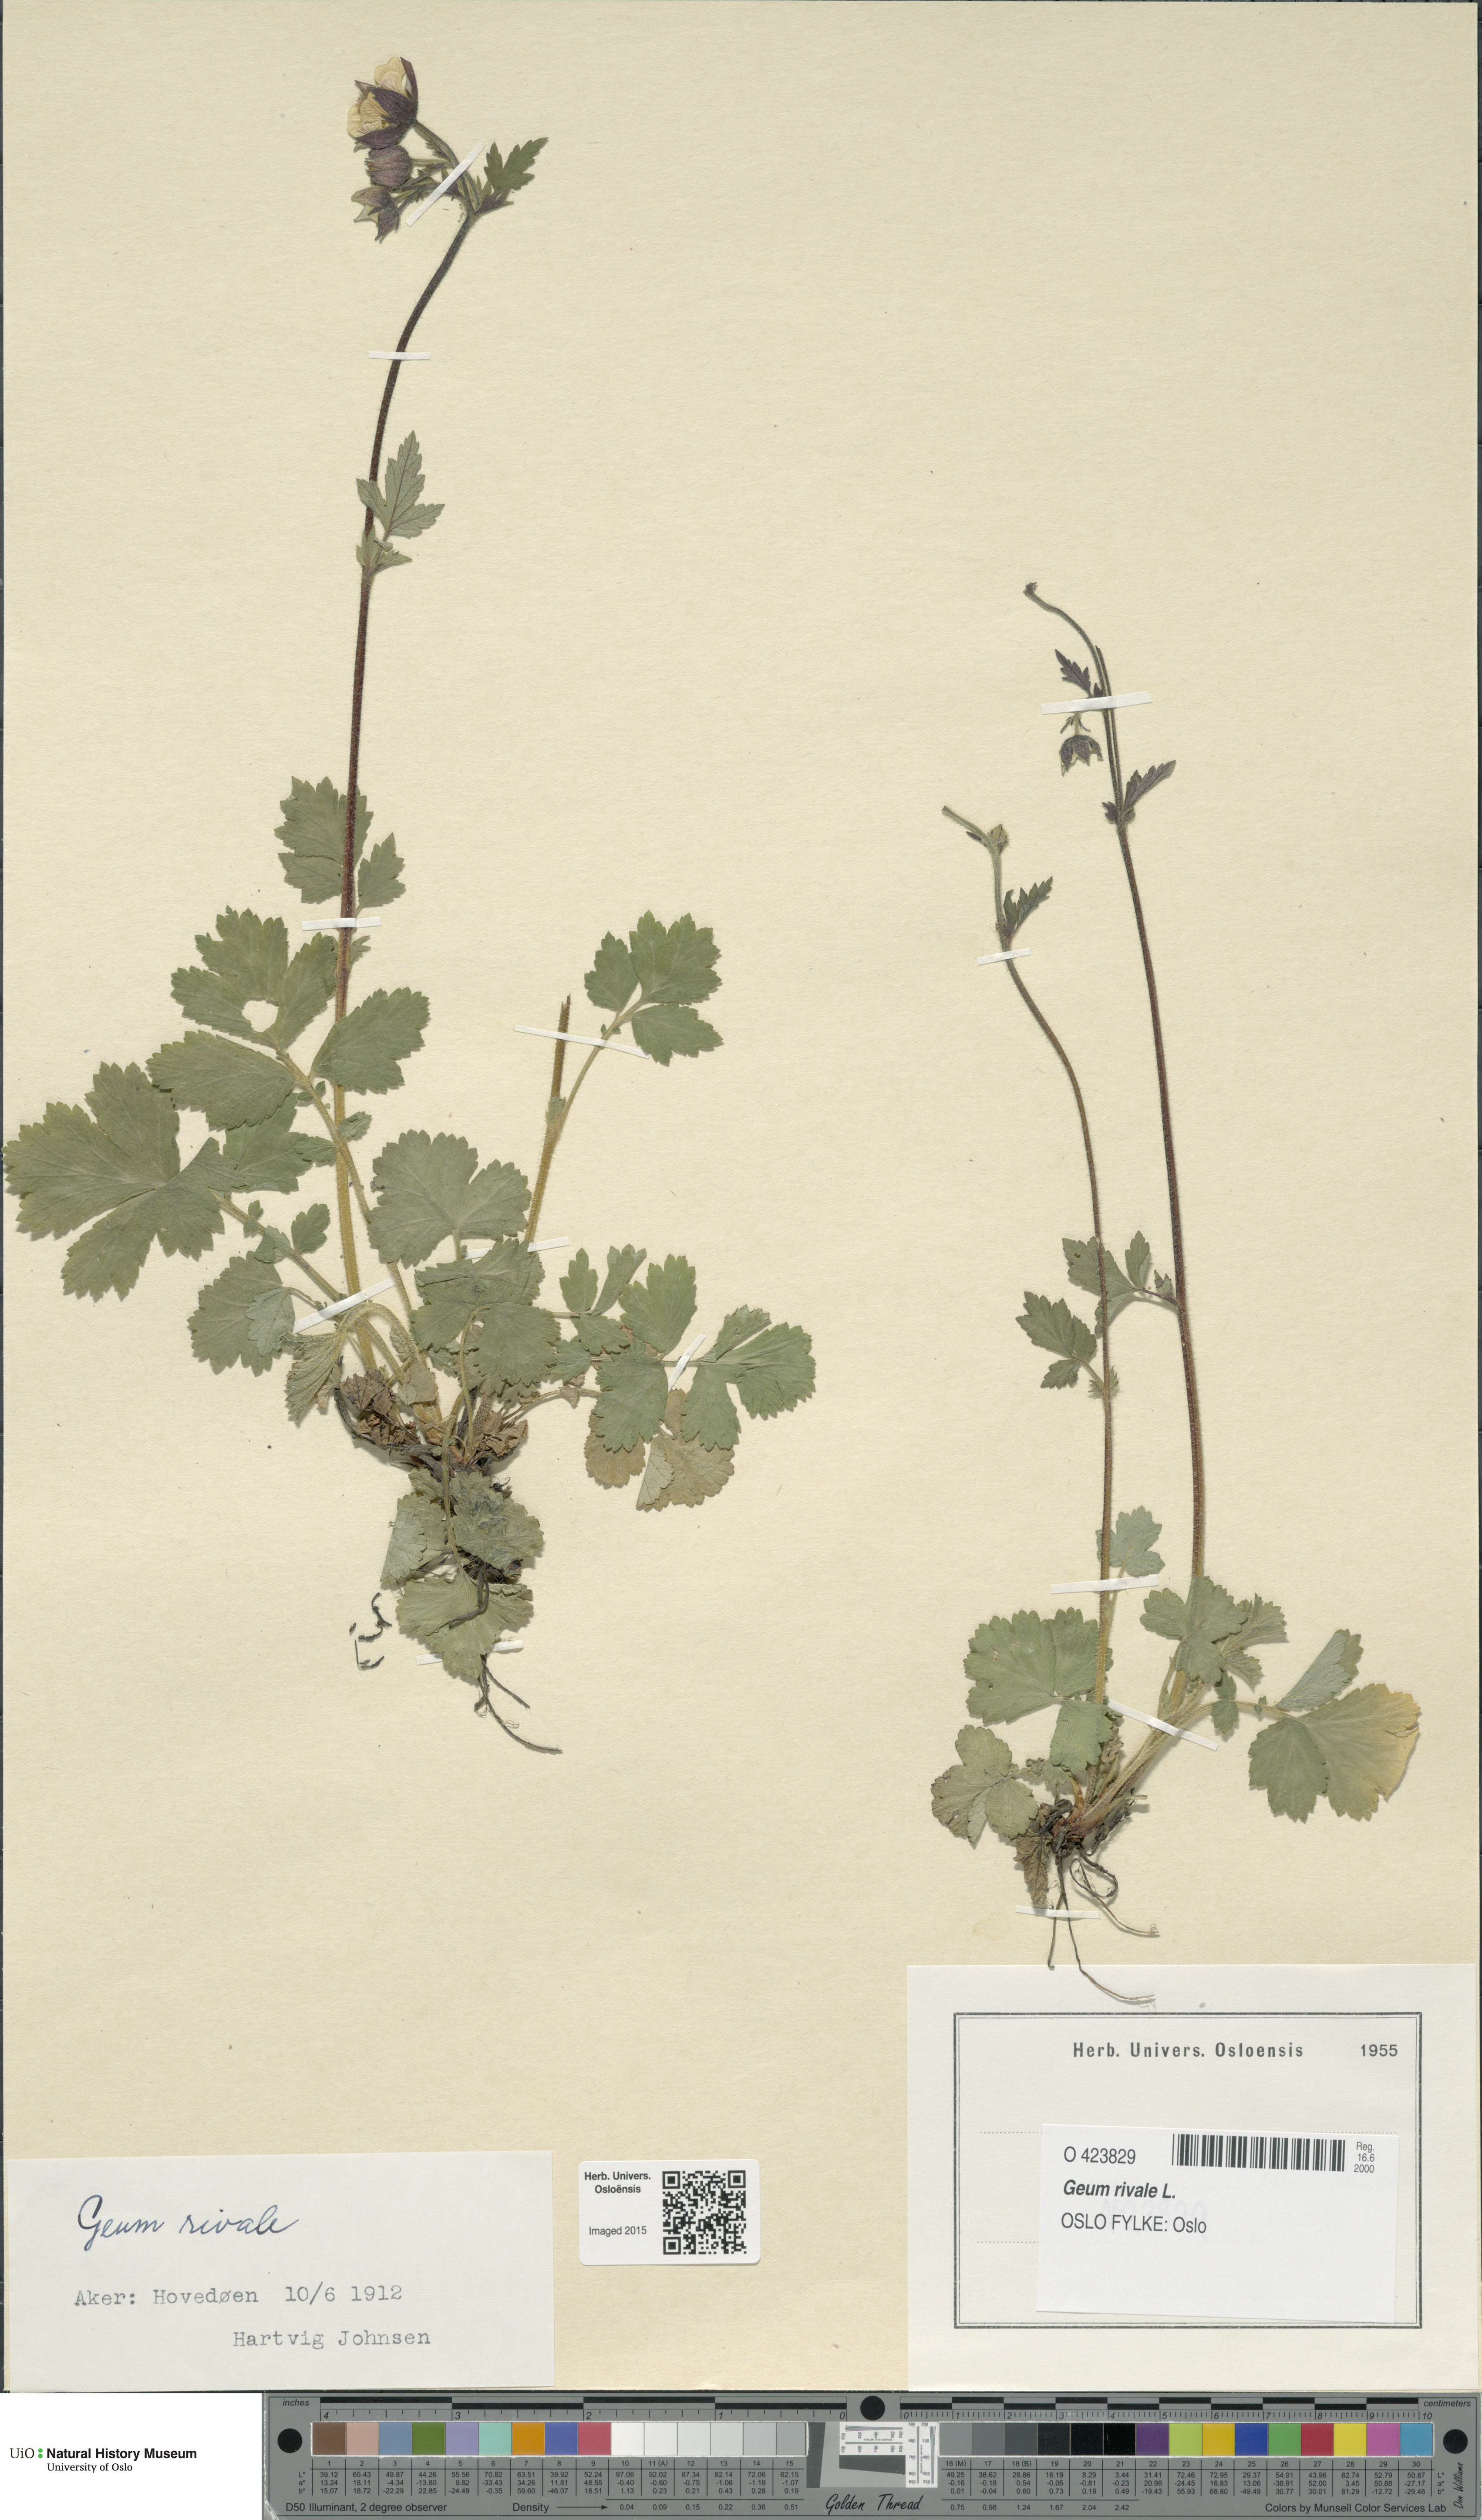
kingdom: Plantae
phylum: Tracheophyta
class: Magnoliopsida
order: Rosales
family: Rosaceae
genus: Geum
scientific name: Geum rivale
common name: Water avens
